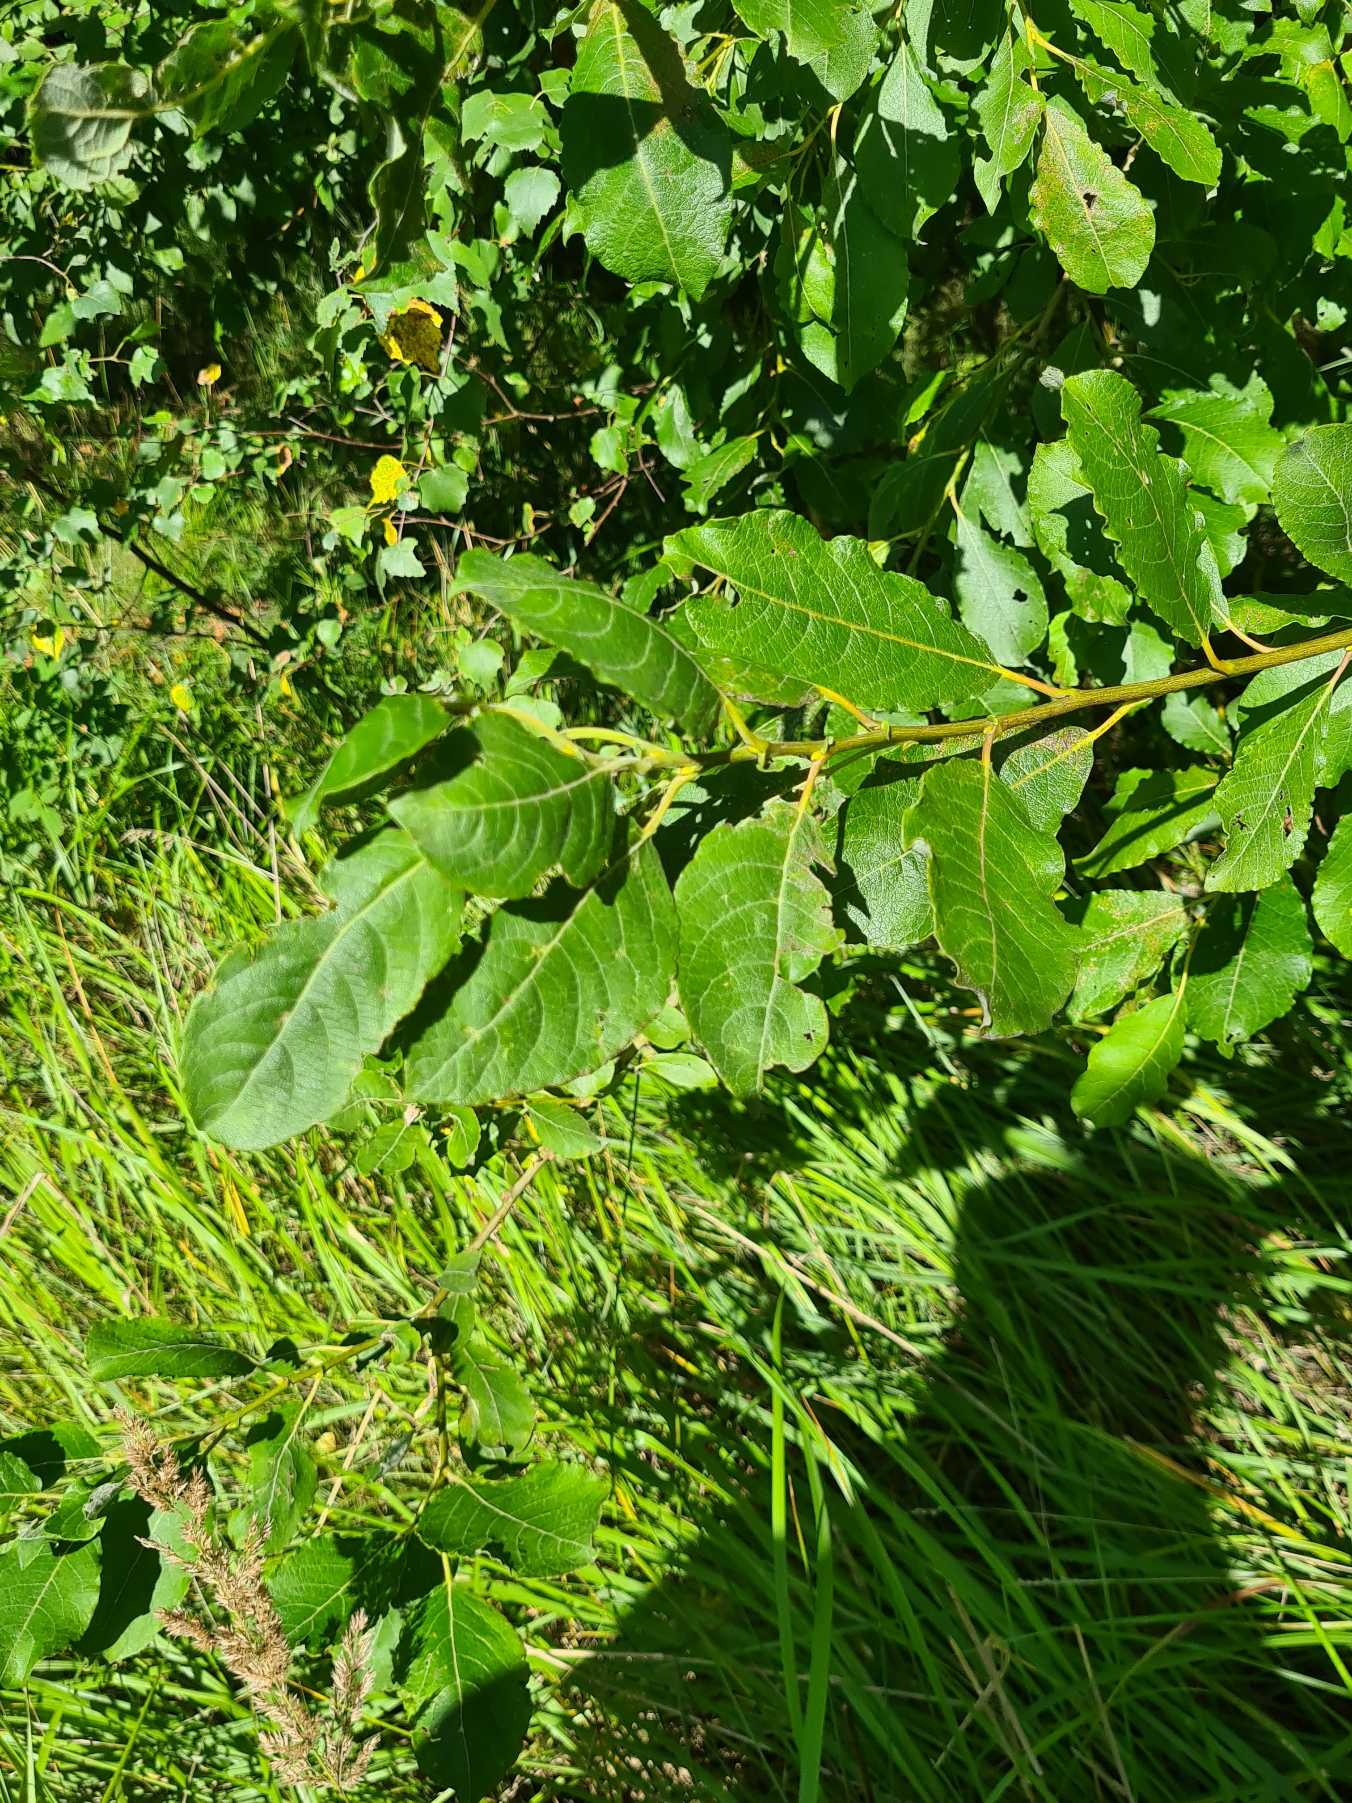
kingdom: Plantae
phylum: Tracheophyta
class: Magnoliopsida
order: Malpighiales
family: Salicaceae
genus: Salix
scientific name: Salix caprea
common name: Selje-pil
